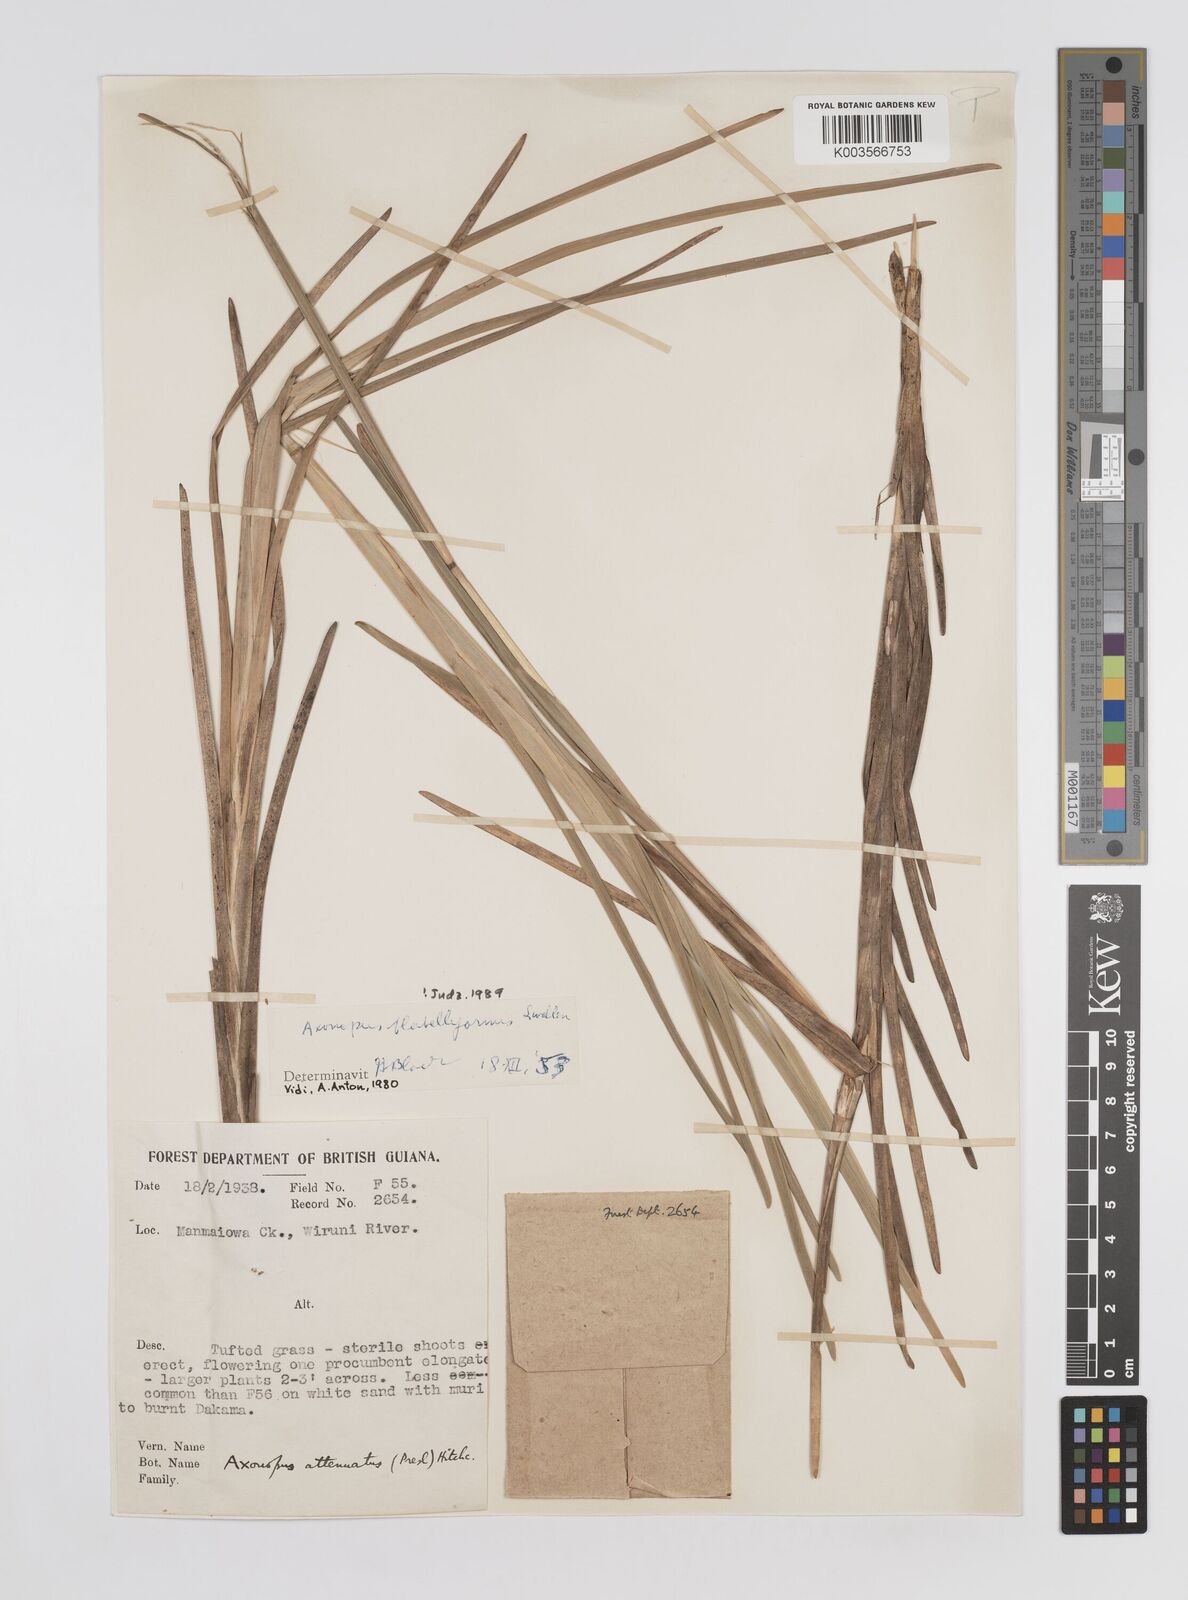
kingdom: Plantae
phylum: Tracheophyta
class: Liliopsida
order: Poales
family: Poaceae
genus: Axonopus
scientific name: Axonopus flabelliformis
